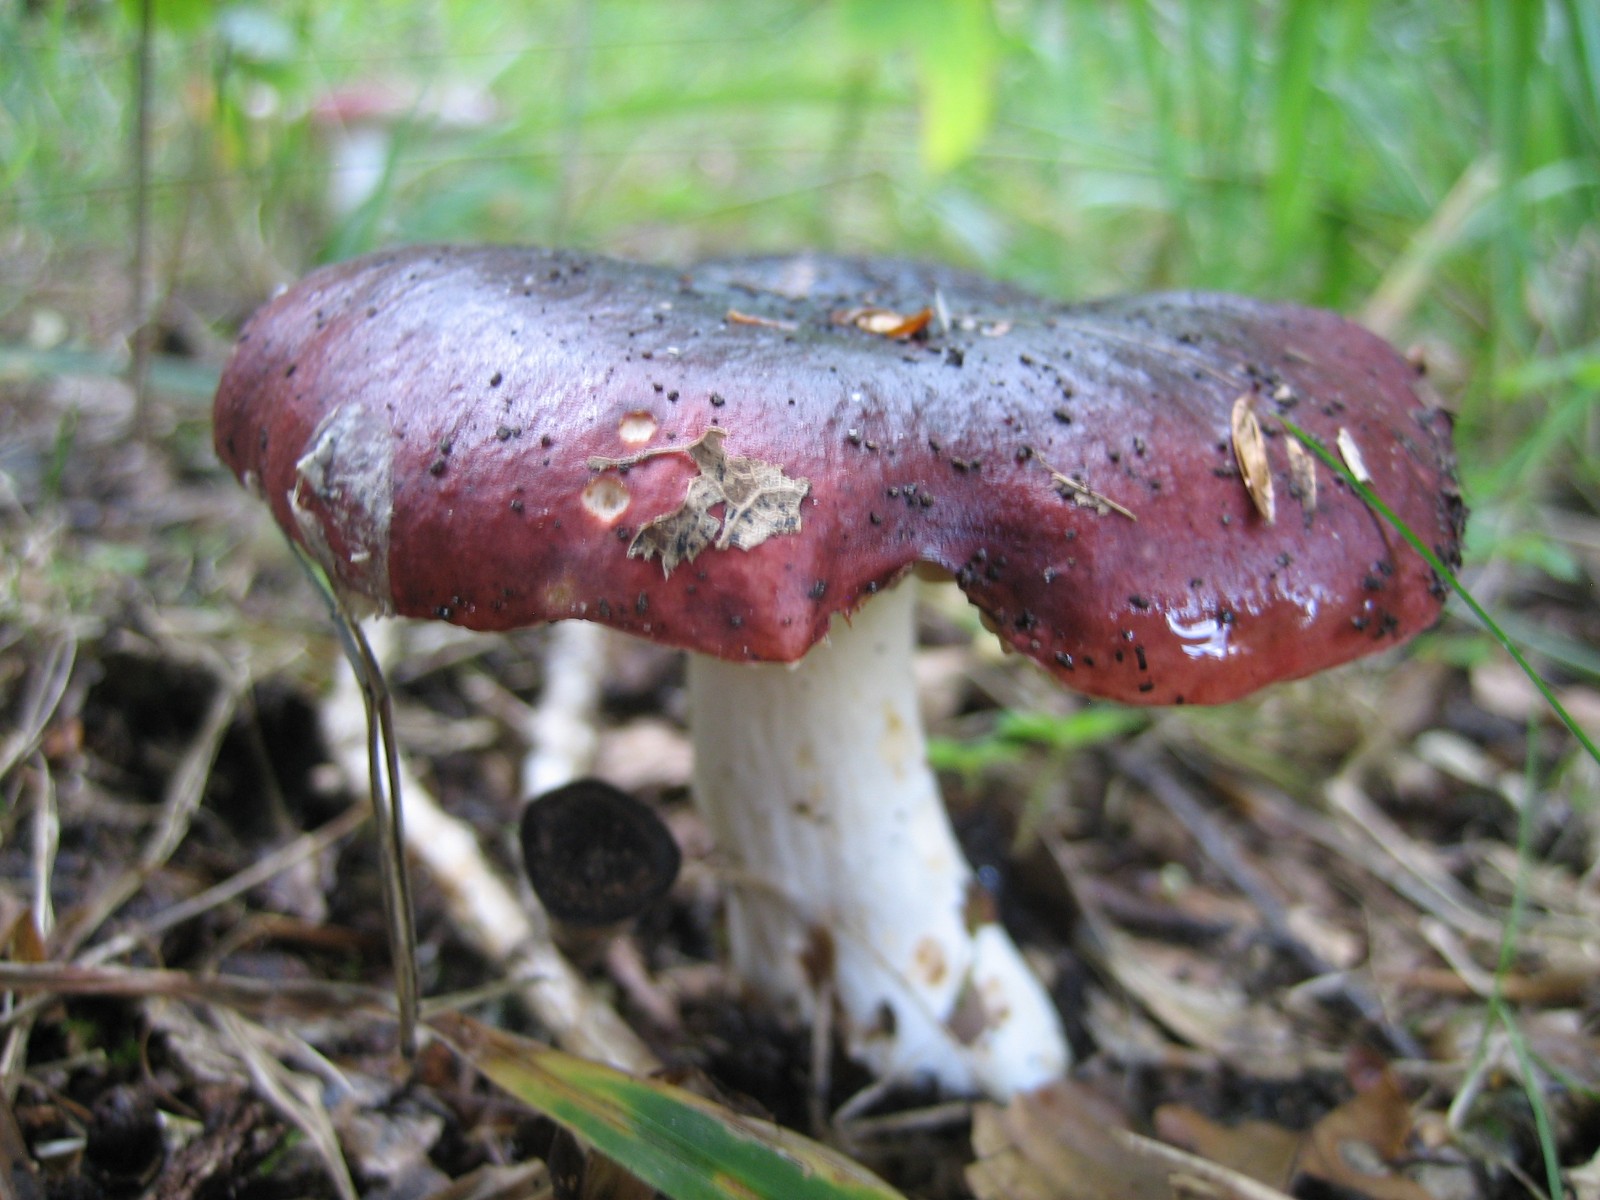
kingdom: Fungi
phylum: Basidiomycota
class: Agaricomycetes
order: Russulales
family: Russulaceae
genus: Russula
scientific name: Russula
